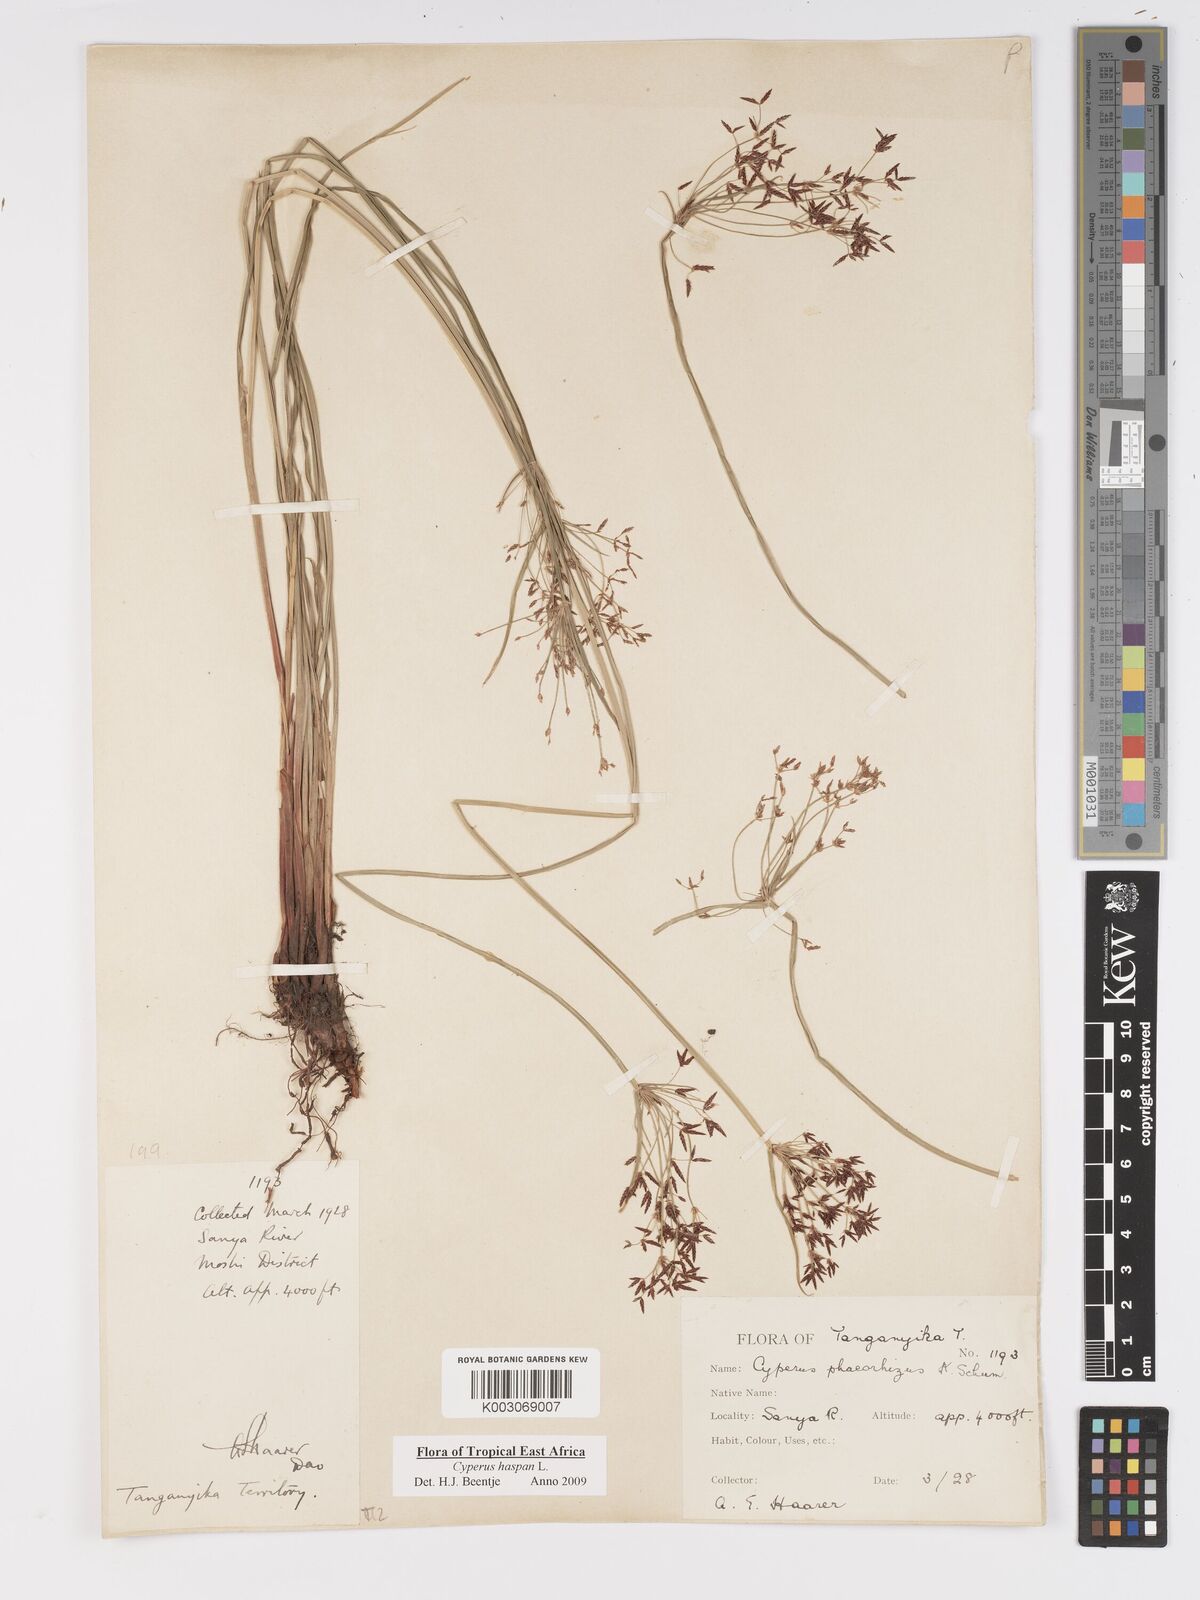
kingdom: Plantae
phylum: Tracheophyta
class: Liliopsida
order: Poales
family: Cyperaceae
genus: Cyperus
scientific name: Cyperus platycaulis
